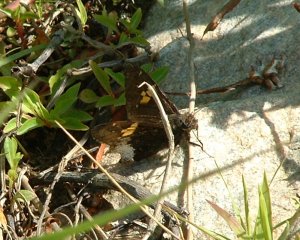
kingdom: Animalia
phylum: Arthropoda
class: Insecta
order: Lepidoptera
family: Hesperiidae
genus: Achalarus
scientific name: Achalarus lyciades
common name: Hoary Edge
